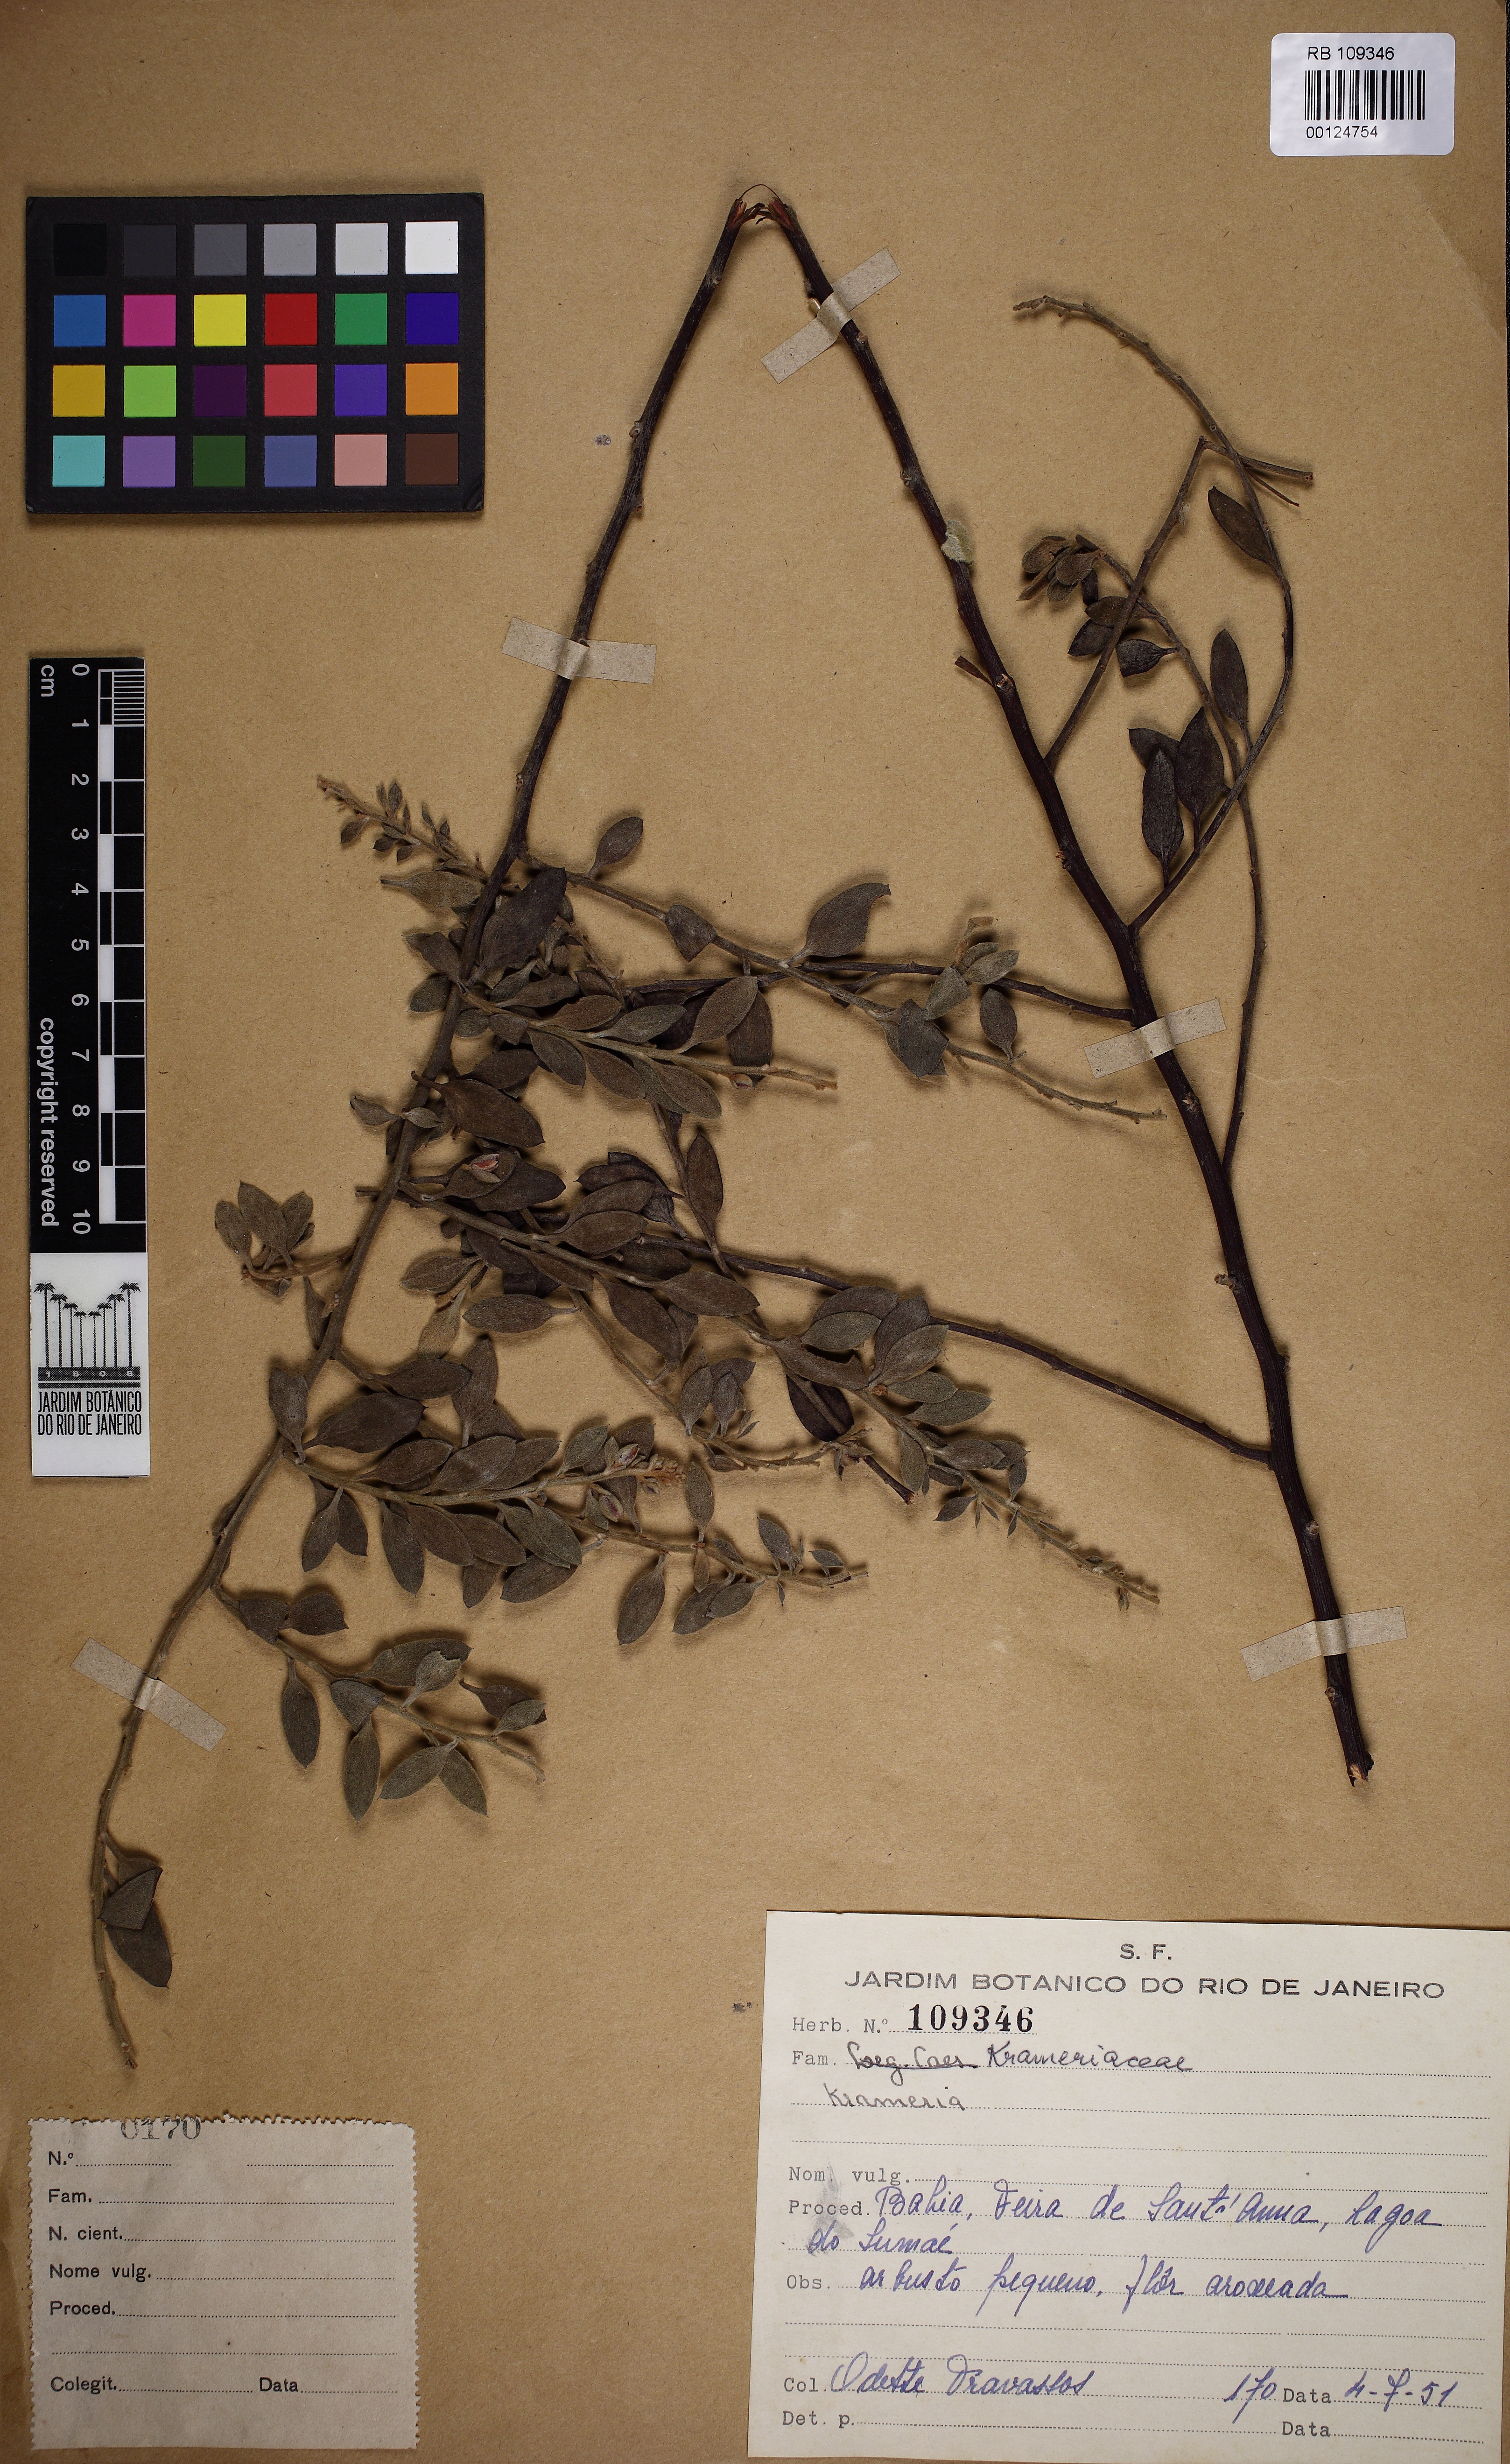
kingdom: Plantae
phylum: Tracheophyta
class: Magnoliopsida
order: Zygophyllales
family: Krameriaceae
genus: Krameria
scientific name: Krameria tomentosa
